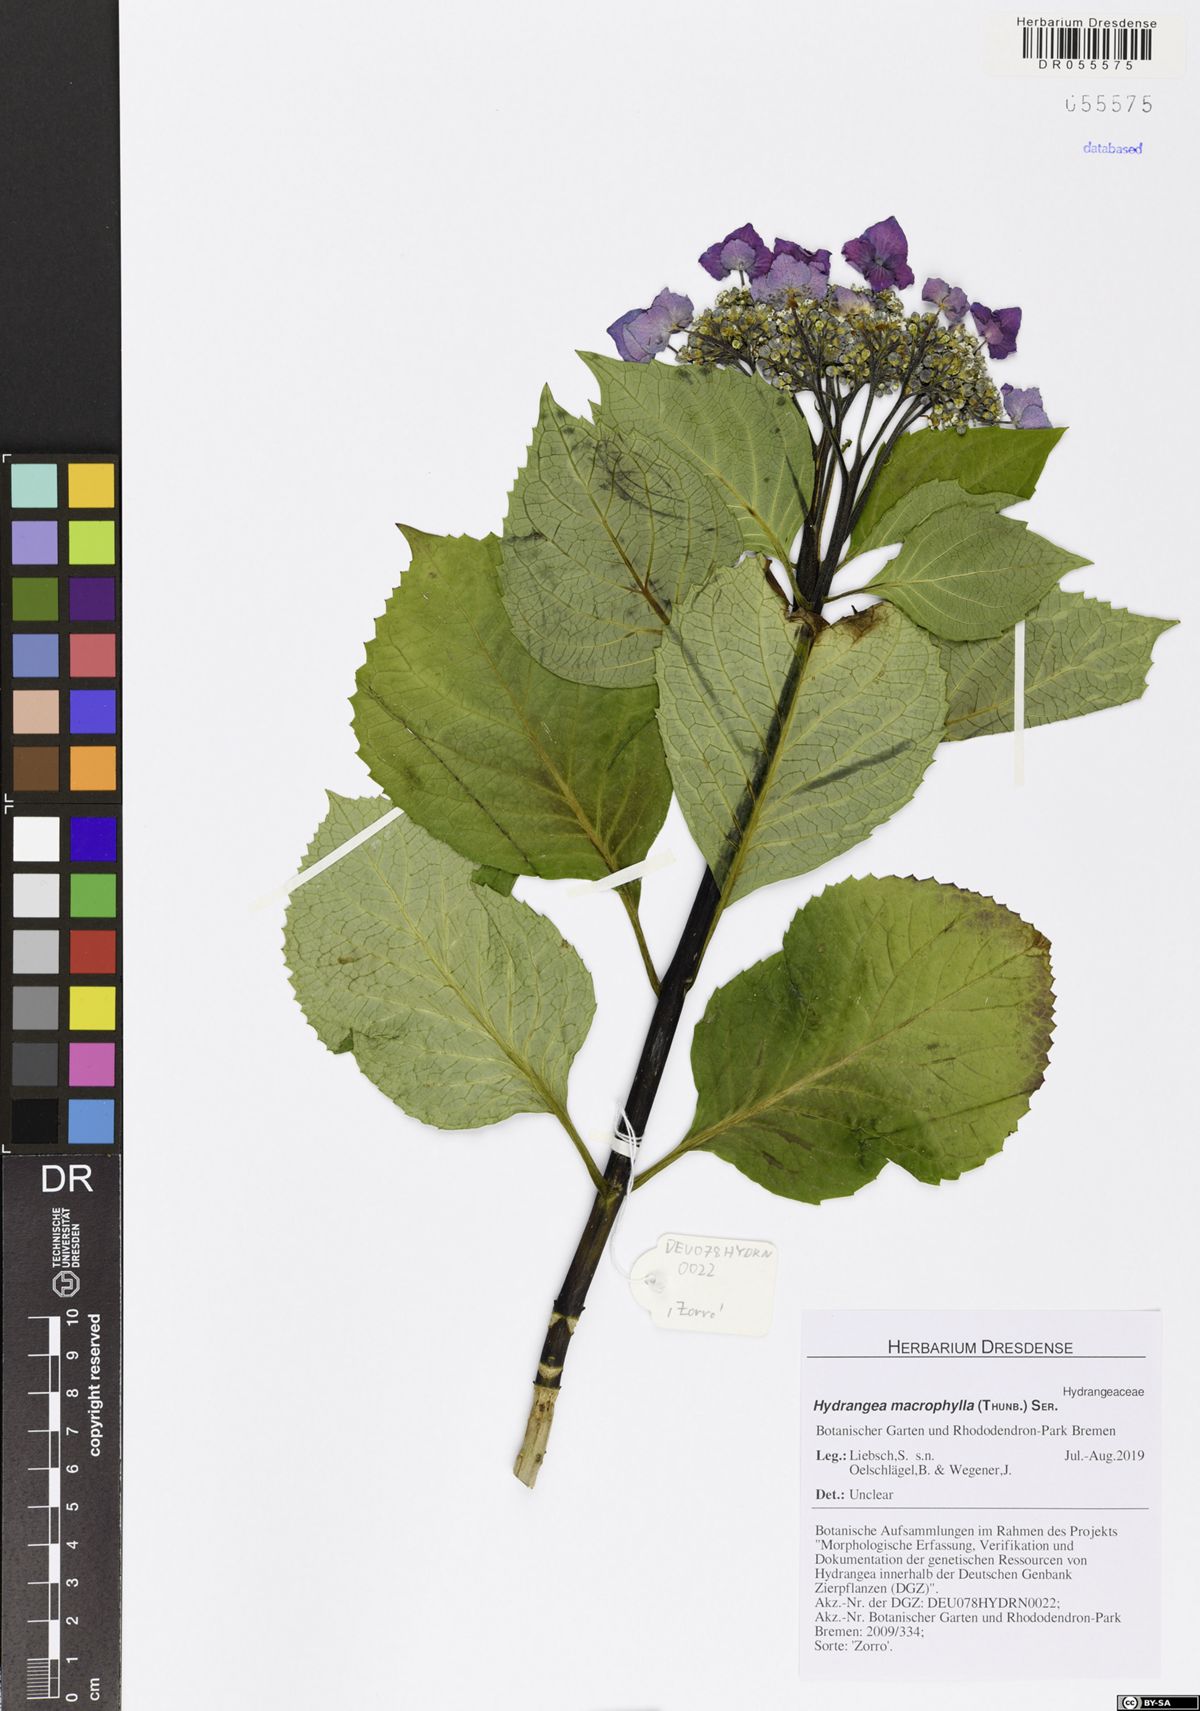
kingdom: Plantae
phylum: Tracheophyta
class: Magnoliopsida
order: Cornales
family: Hydrangeaceae
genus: Hydrangea
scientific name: Hydrangea macrophylla
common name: Hydrangea
